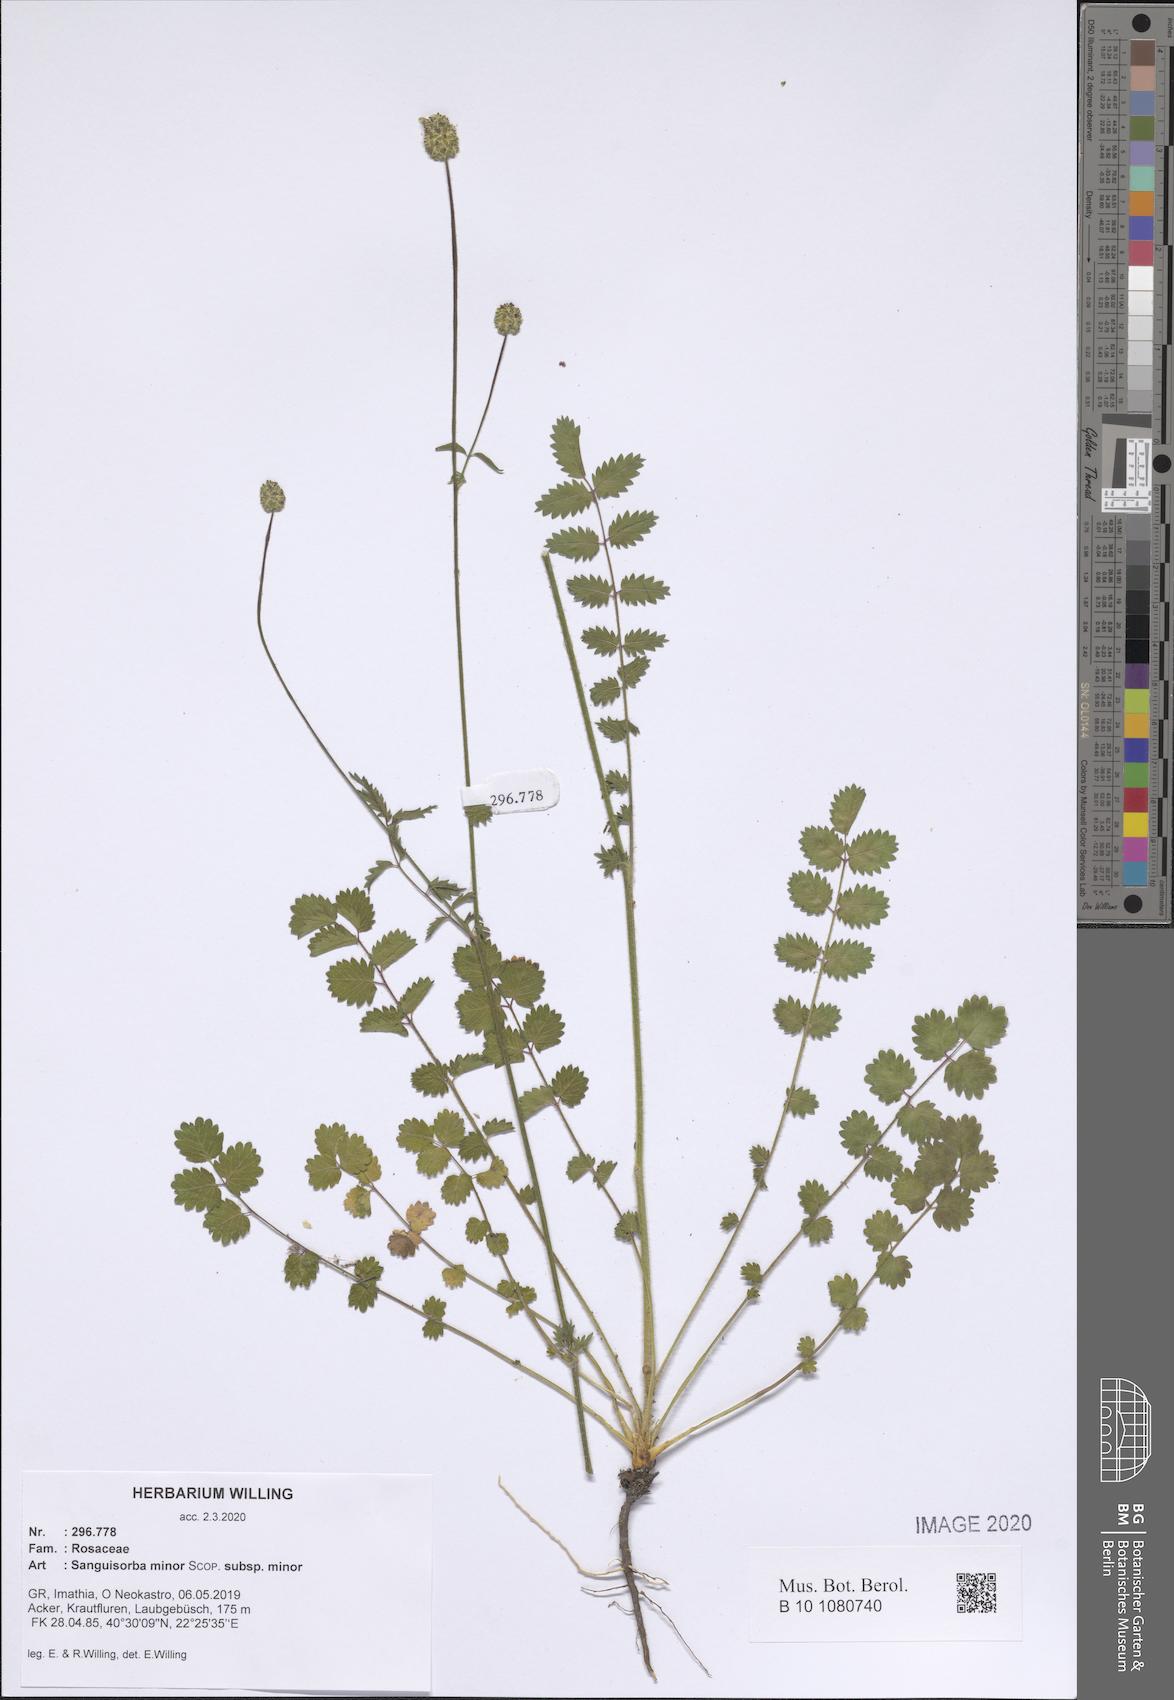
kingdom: Plantae
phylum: Tracheophyta
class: Magnoliopsida
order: Rosales
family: Rosaceae
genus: Poterium
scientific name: Poterium sanguisorba
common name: Salad burnet
